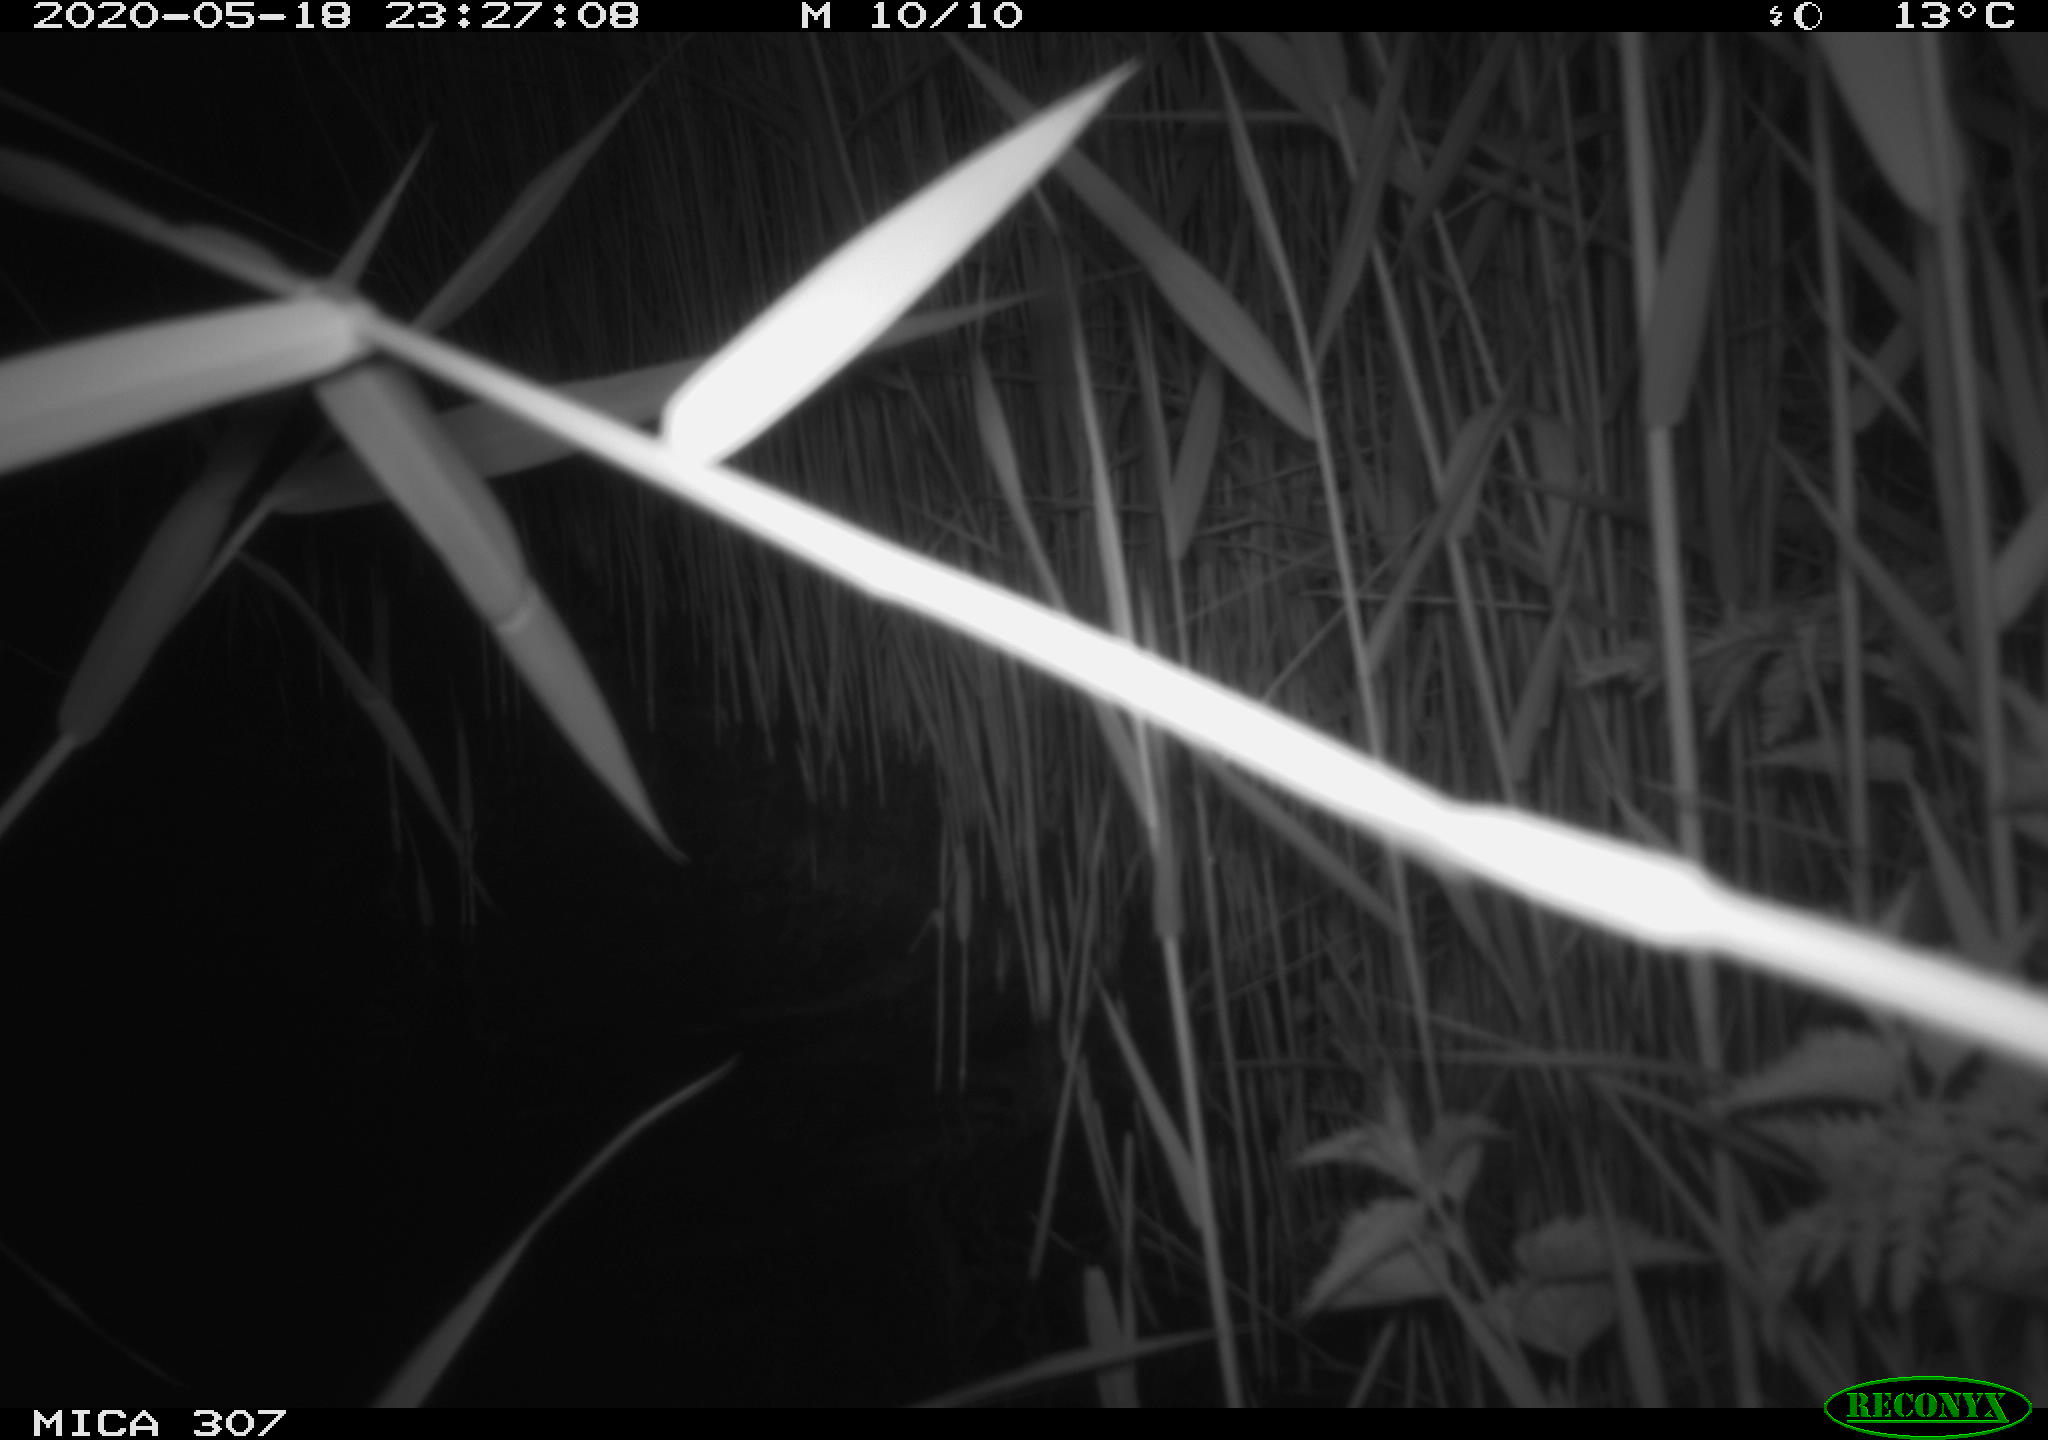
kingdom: Animalia
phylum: Chordata
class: Aves
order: Anseriformes
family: Anatidae
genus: Anas
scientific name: Anas platyrhynchos
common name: Mallard
